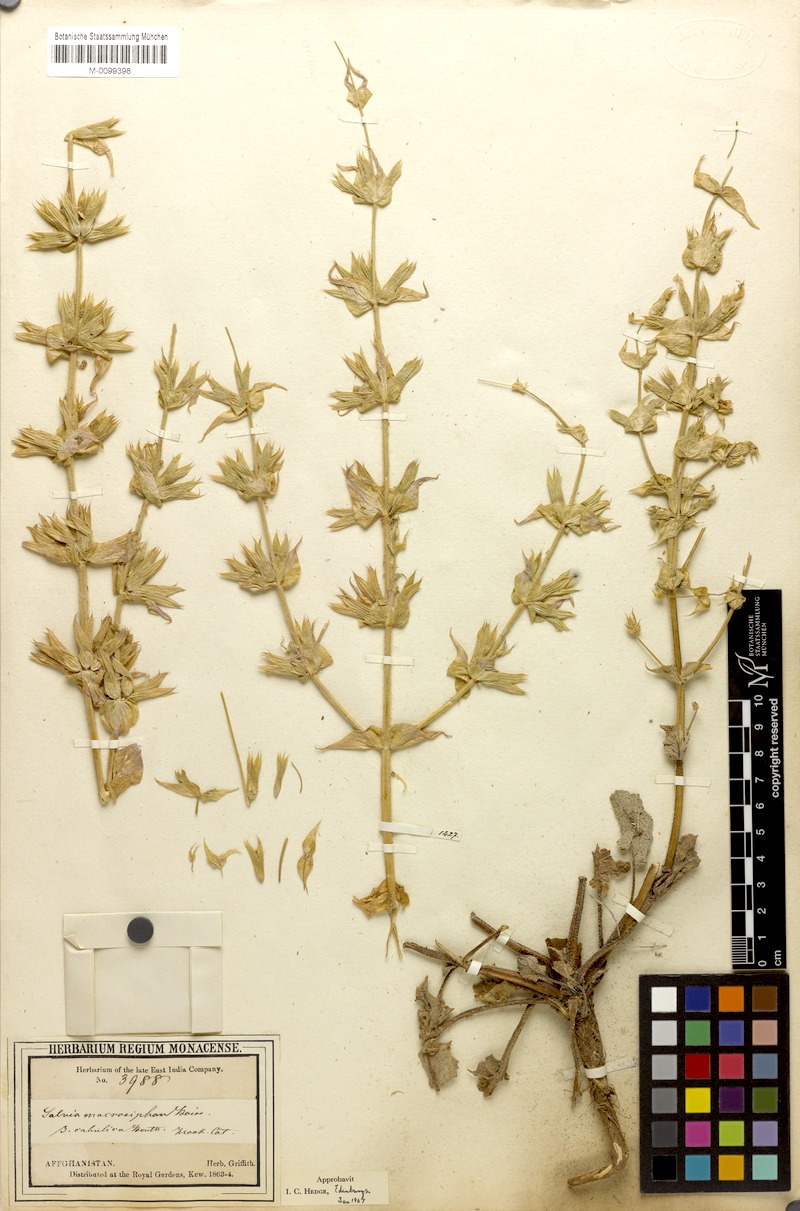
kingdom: Plantae
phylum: Tracheophyta
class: Magnoliopsida
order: Lamiales
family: Lamiaceae
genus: Salvia
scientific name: Salvia macrosiphon
